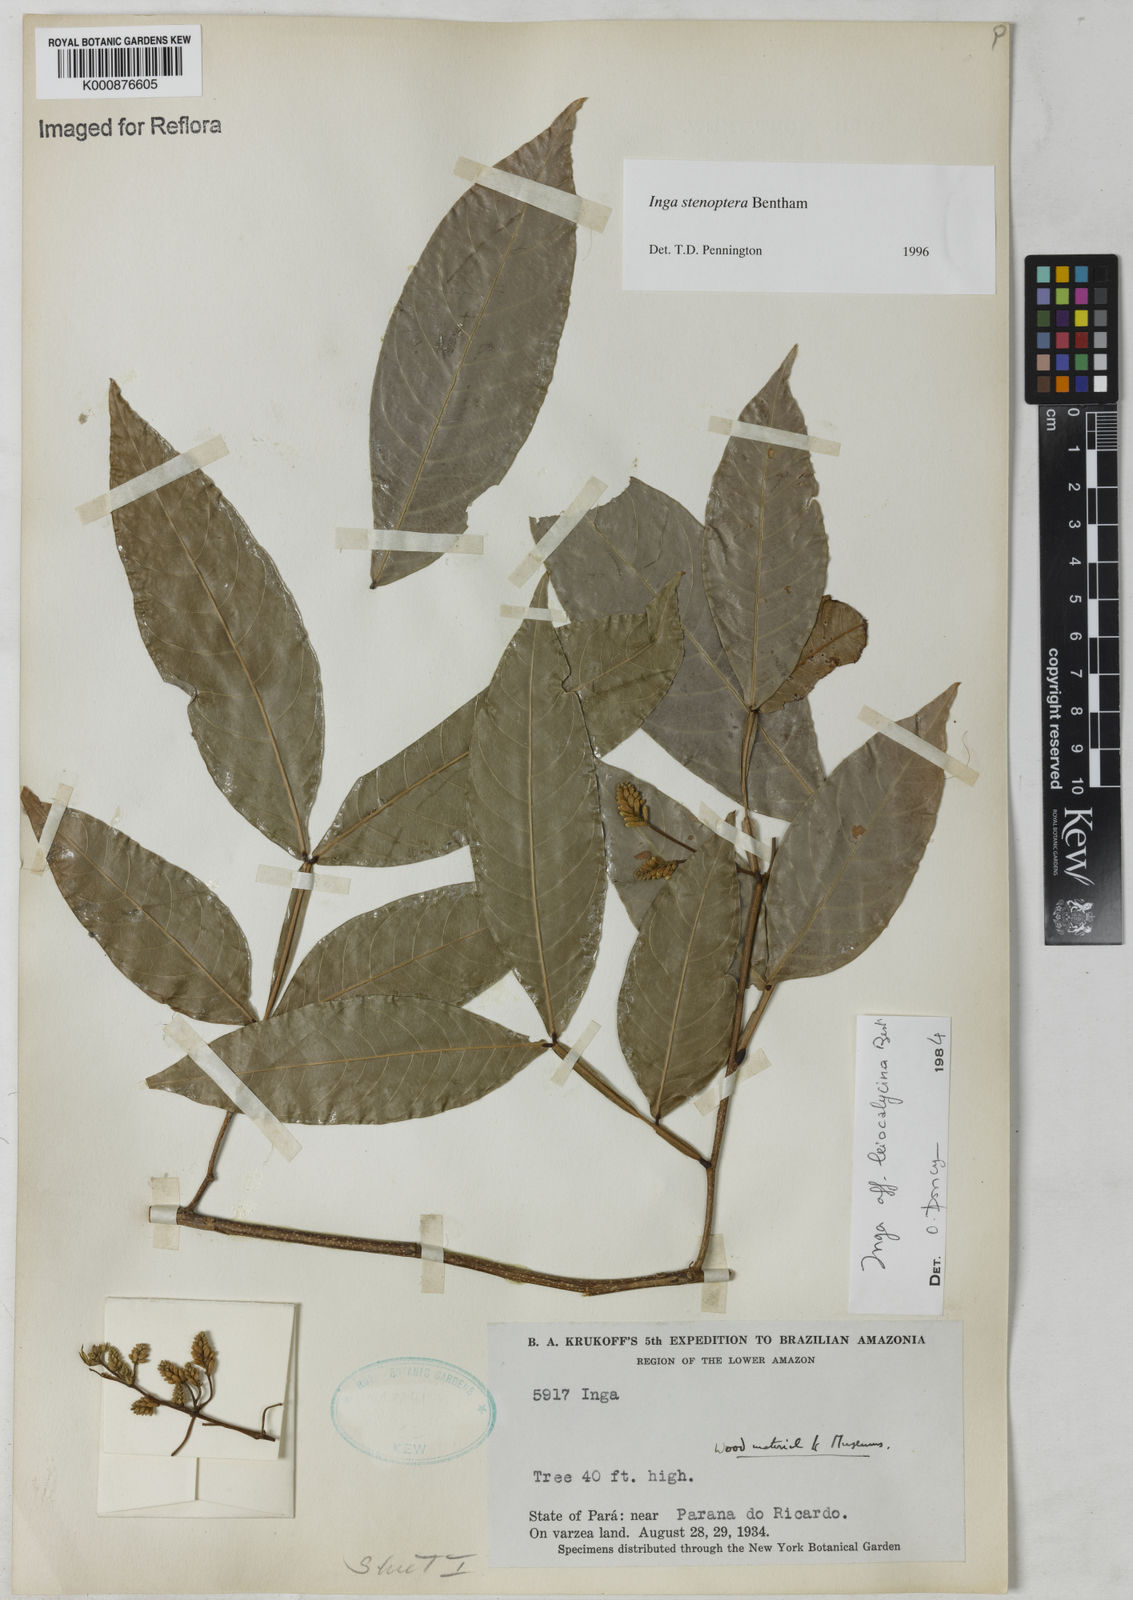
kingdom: Plantae
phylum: Tracheophyta
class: Magnoliopsida
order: Fabales
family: Fabaceae
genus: Inga
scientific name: Inga stenoptera
